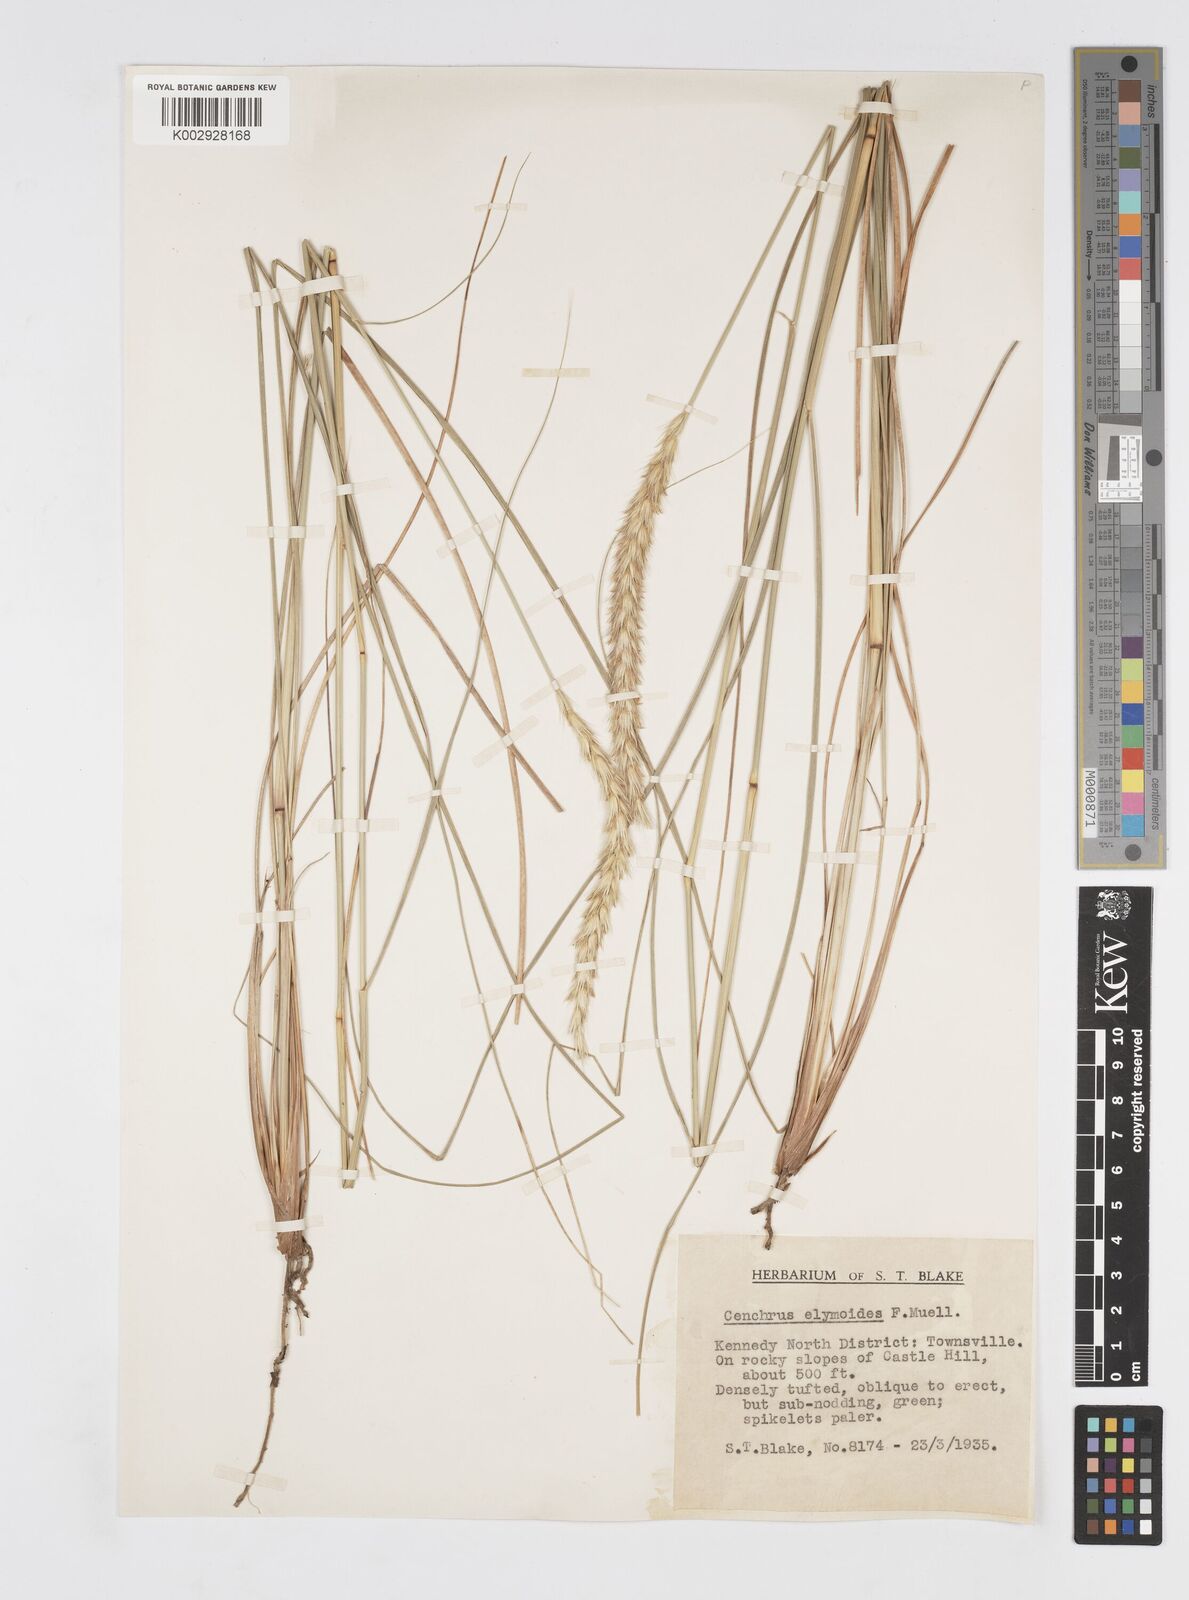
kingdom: Plantae
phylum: Tracheophyta
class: Liliopsida
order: Poales
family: Poaceae
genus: Cenchrus
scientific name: Cenchrus elymoides
